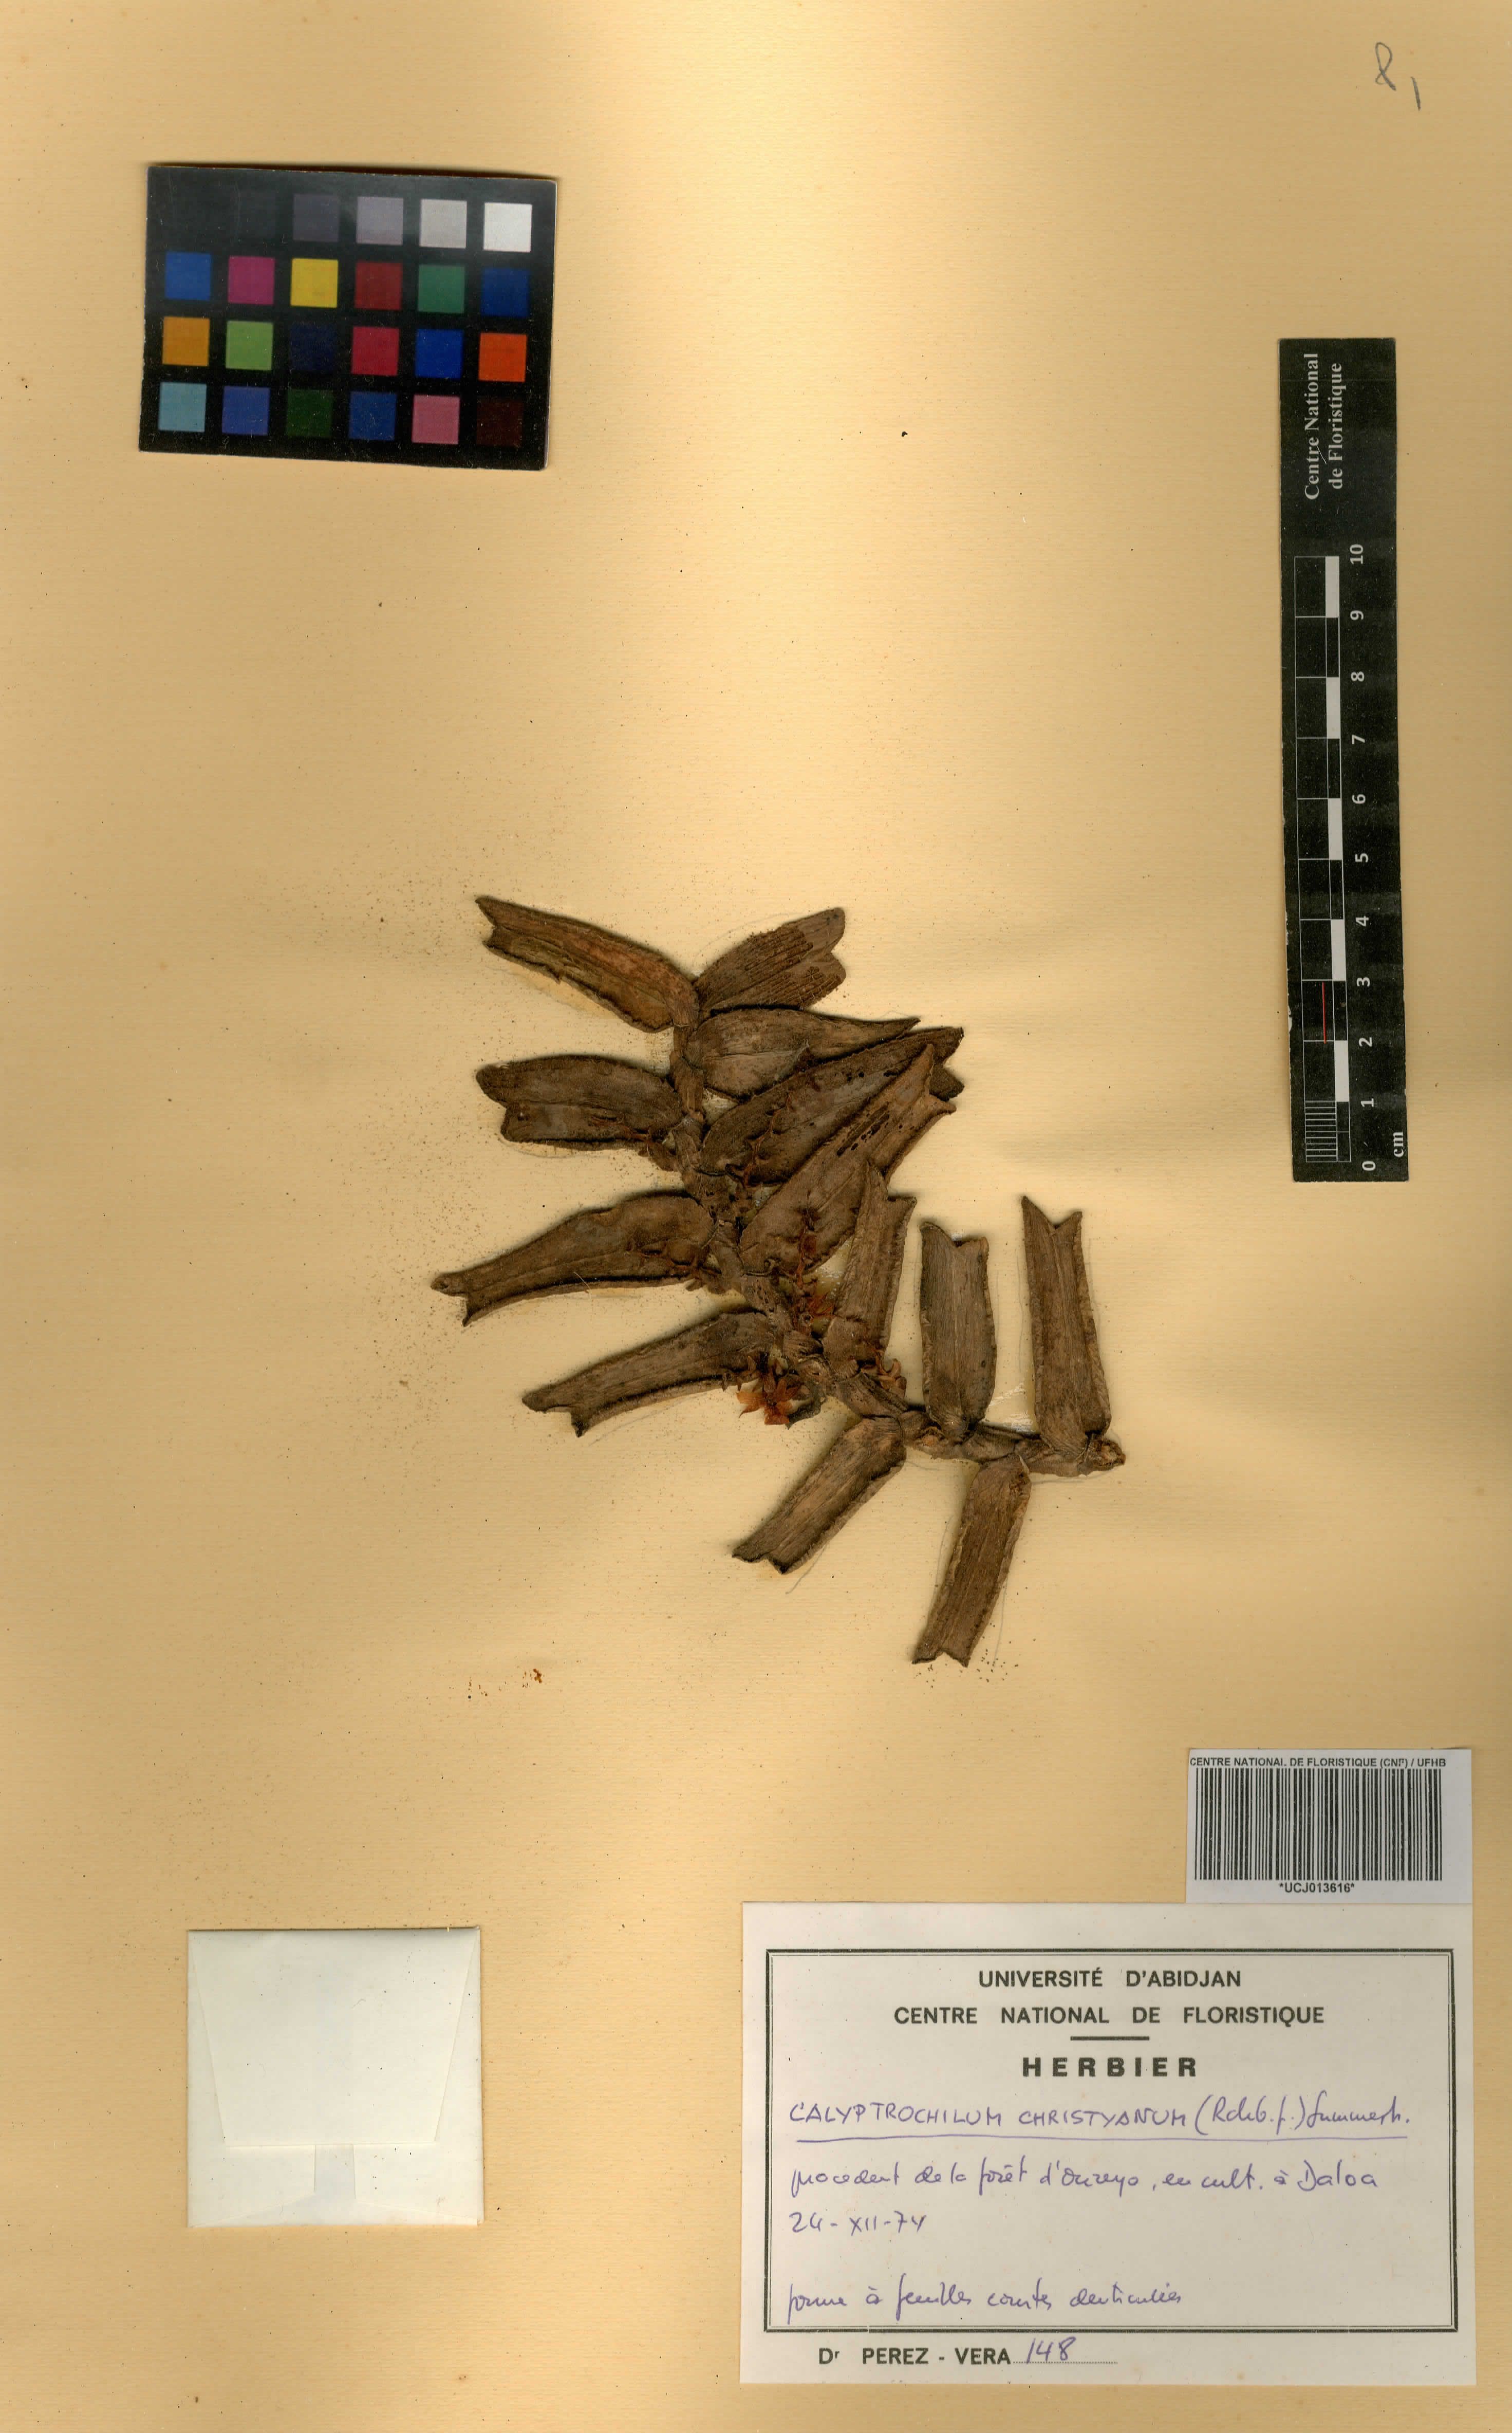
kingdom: Plantae
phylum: Tracheophyta
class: Liliopsida
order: Asparagales
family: Orchidaceae
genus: Calyptrochilum
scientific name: Calyptrochilum christyanum
